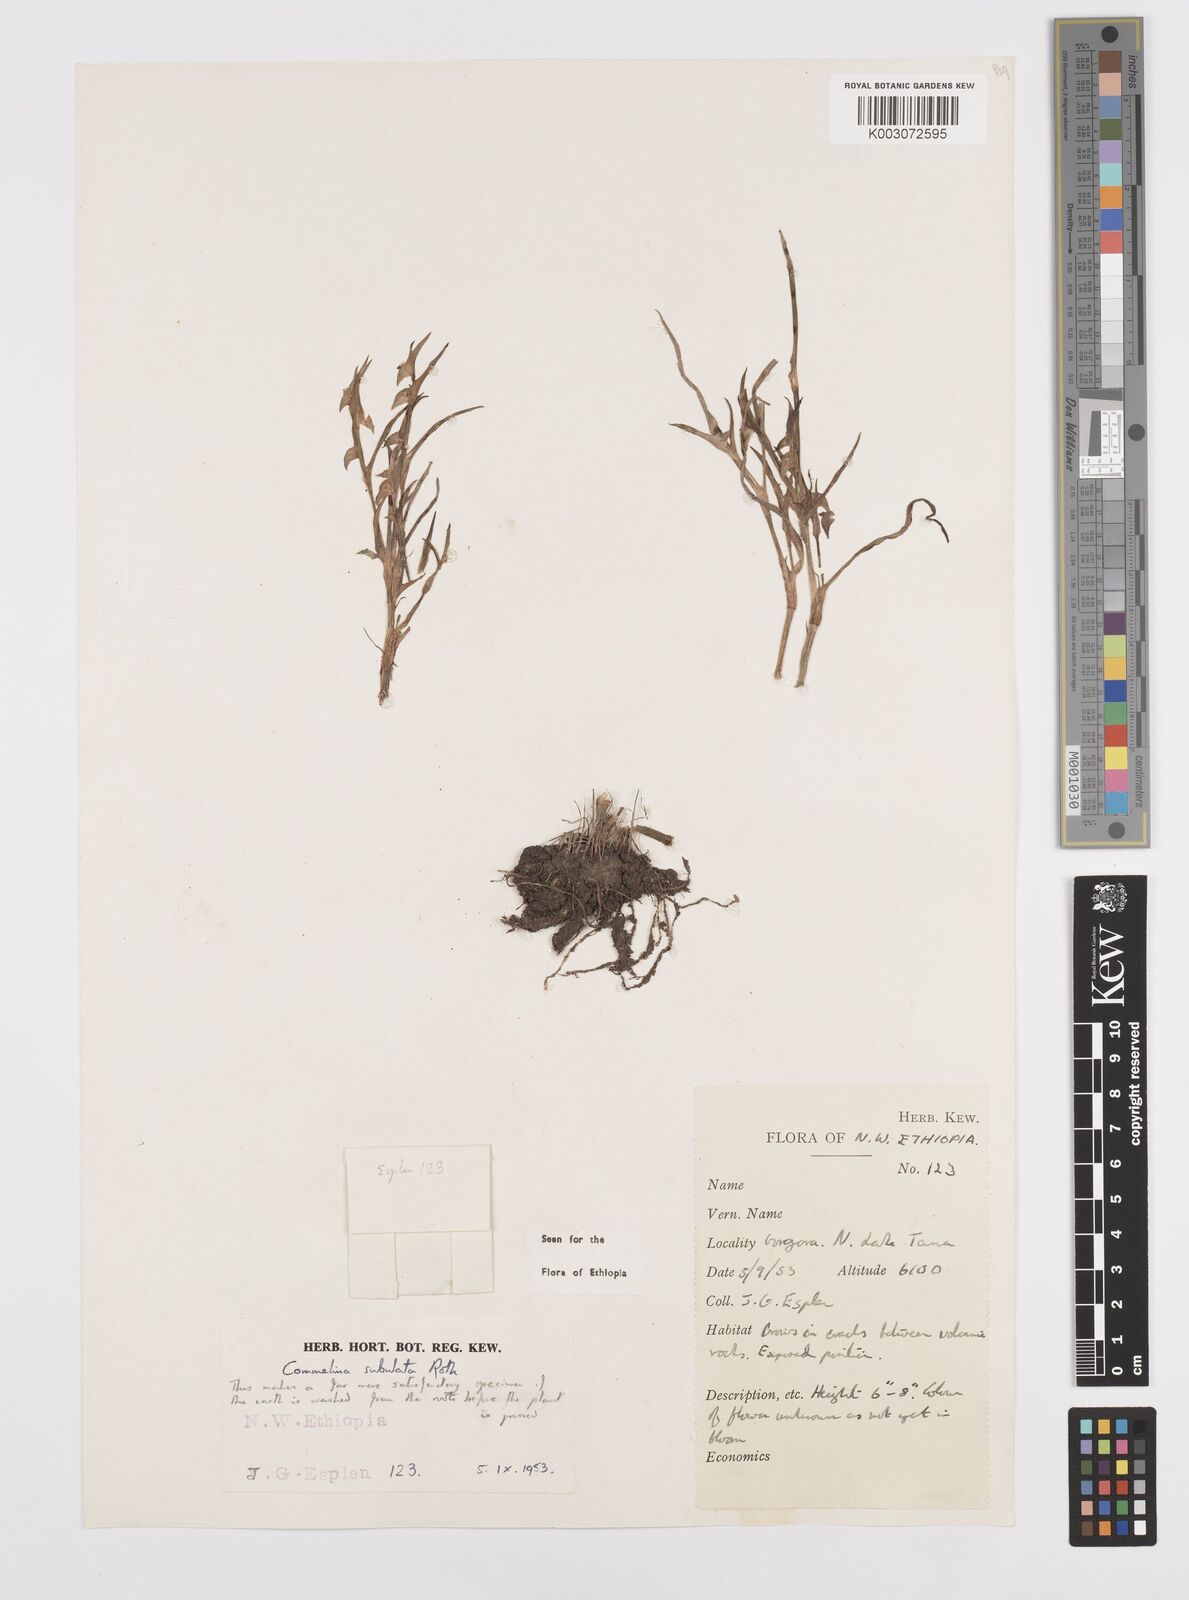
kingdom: Plantae
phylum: Tracheophyta
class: Liliopsida
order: Commelinales
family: Commelinaceae
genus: Commelina
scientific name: Commelina subulata
